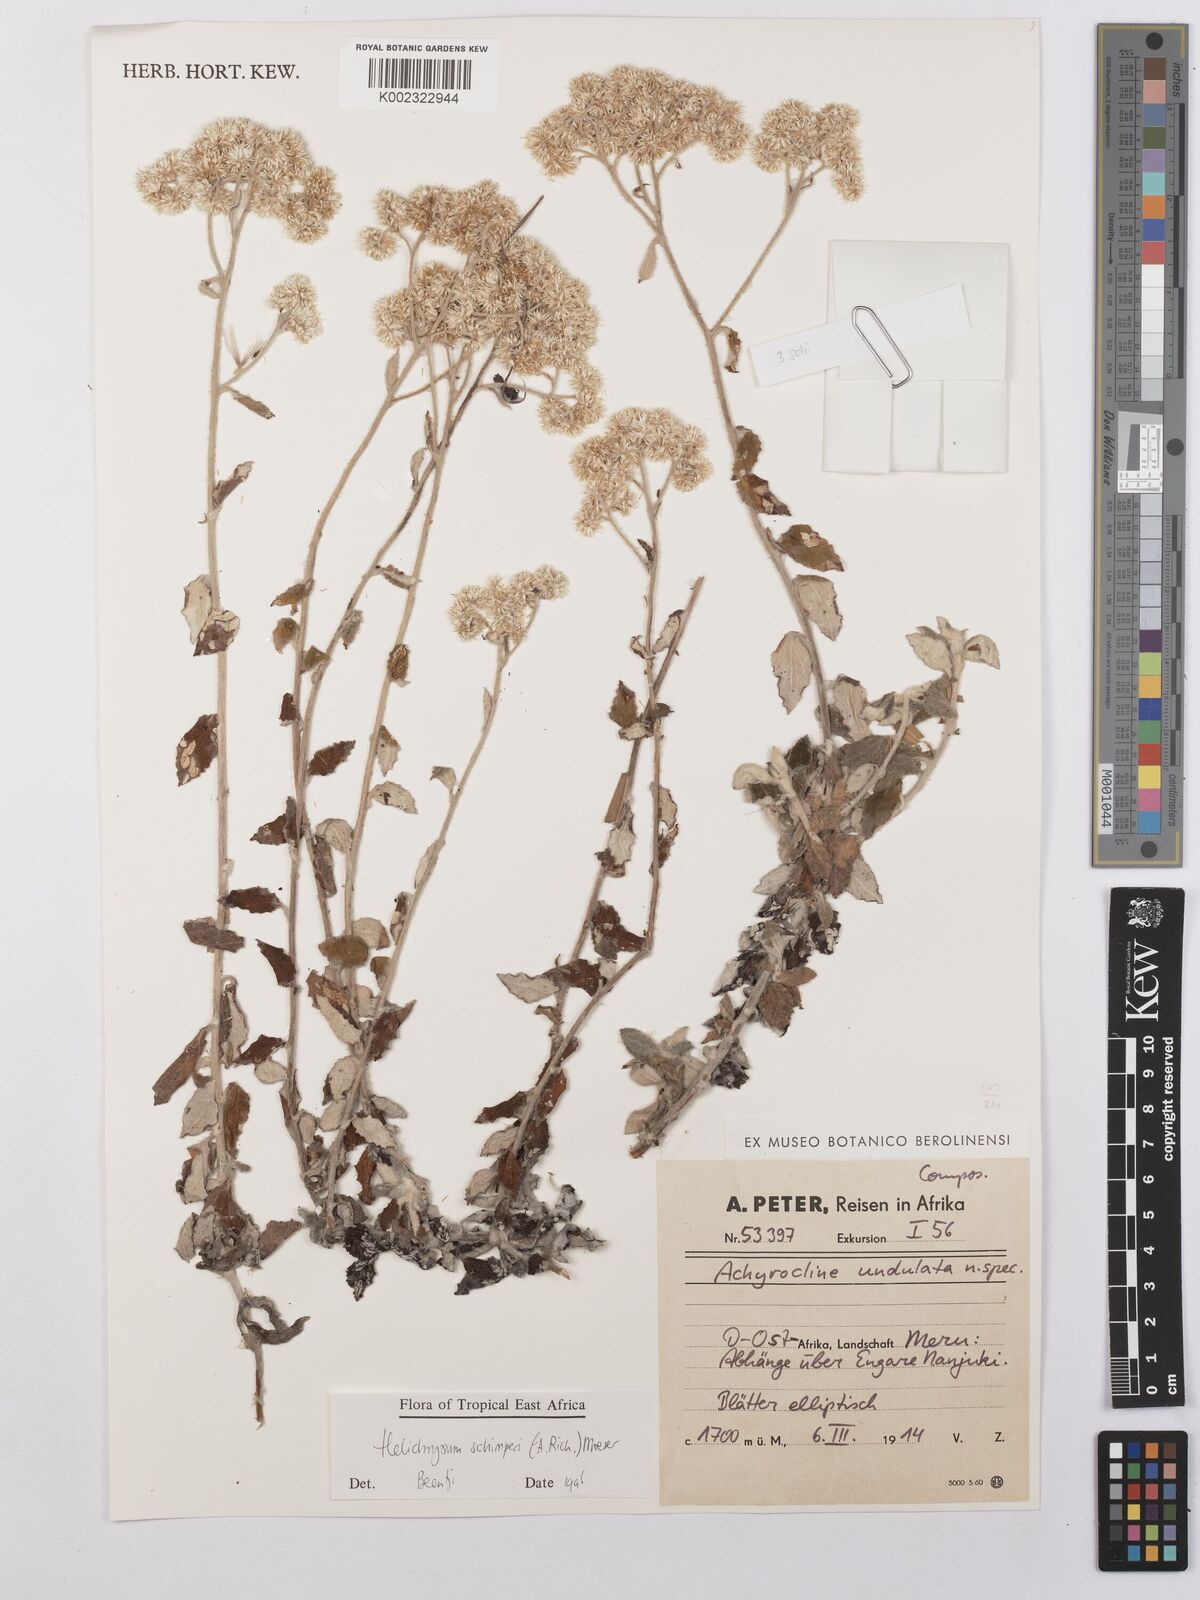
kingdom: Plantae
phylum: Tracheophyta
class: Magnoliopsida
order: Asterales
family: Asteraceae
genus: Helichrysum
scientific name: Helichrysum schimperi
